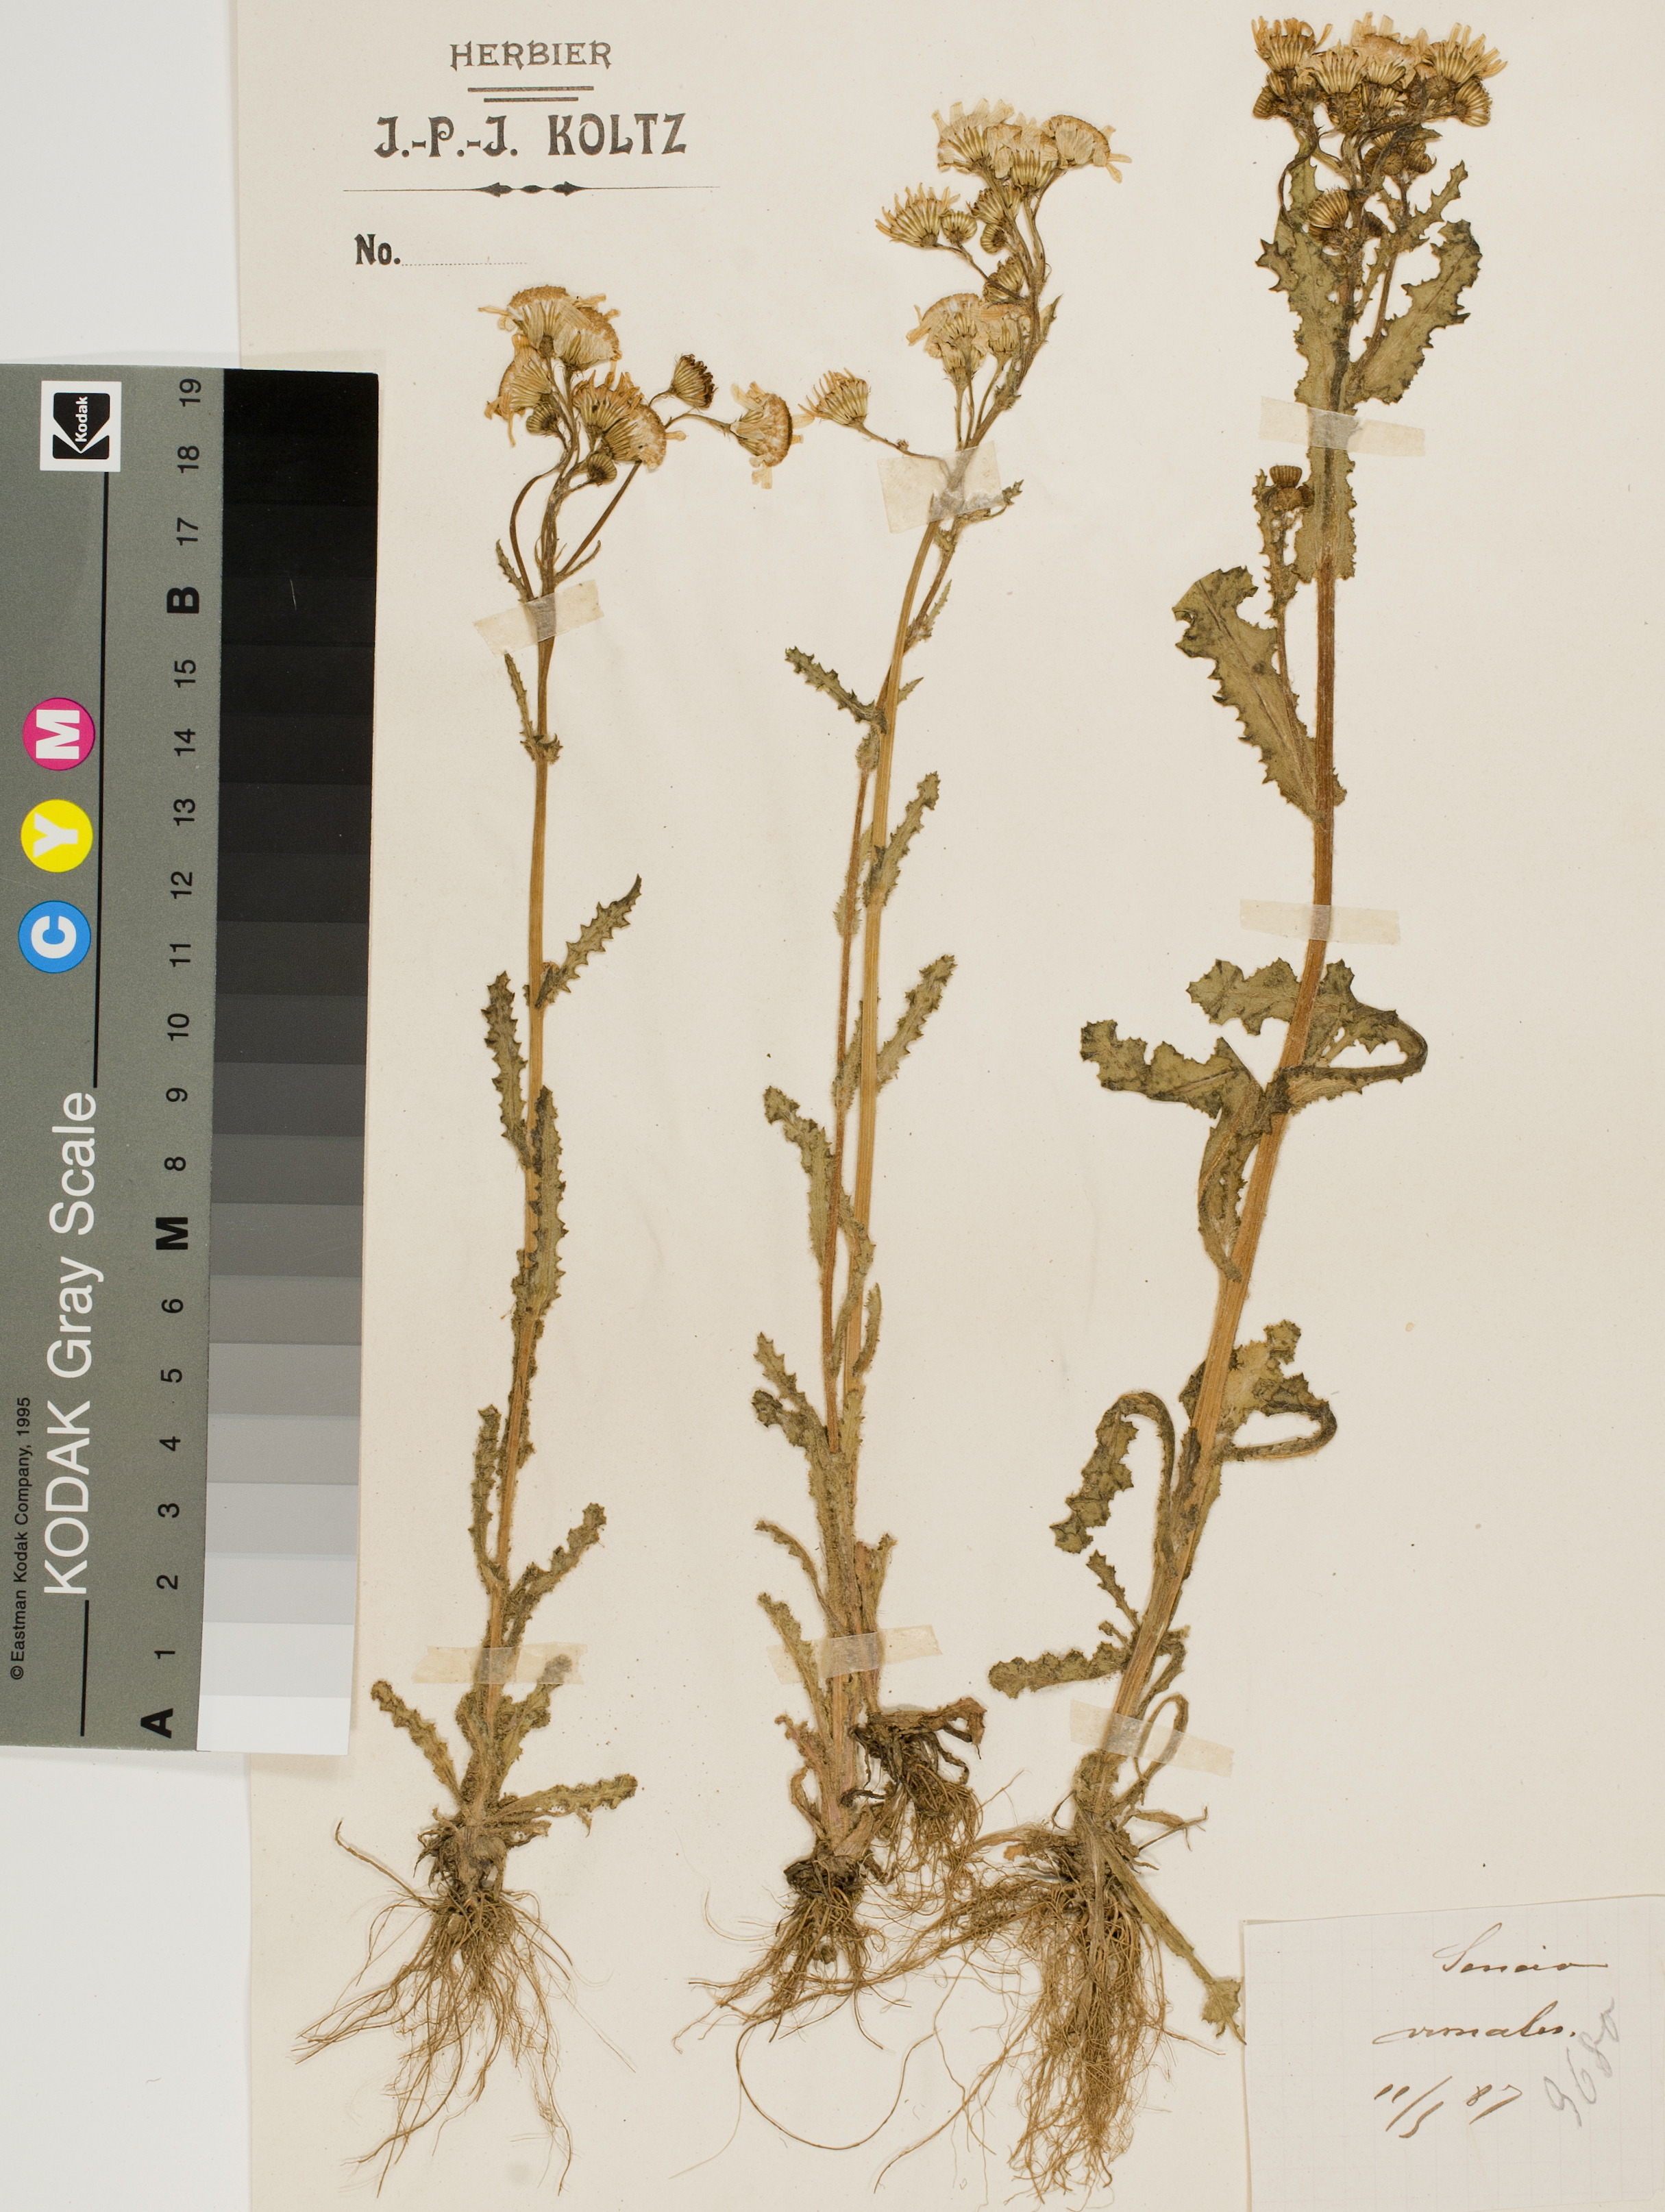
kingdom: Plantae
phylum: Tracheophyta
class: Magnoliopsida
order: Asterales
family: Asteraceae
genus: Senecio
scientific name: Senecio vernalis
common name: Eastern groundsel
